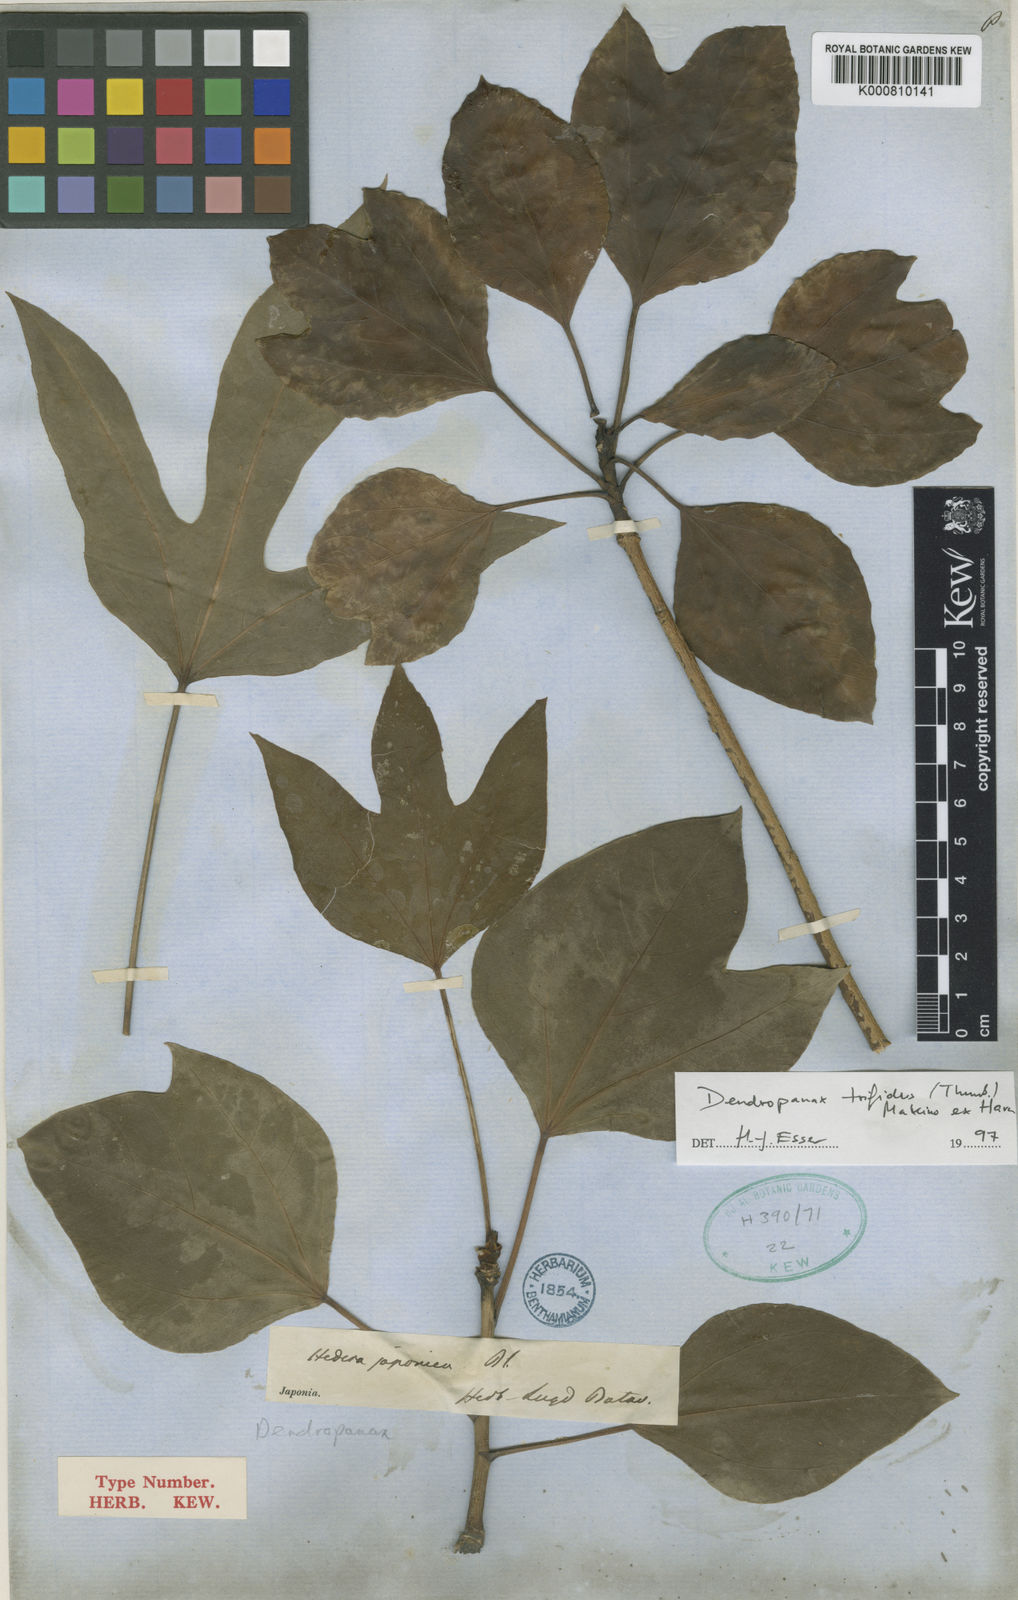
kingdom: Plantae
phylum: Tracheophyta
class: Magnoliopsida
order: Apiales
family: Araliaceae
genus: Dendropanax
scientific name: Dendropanax trifidus
